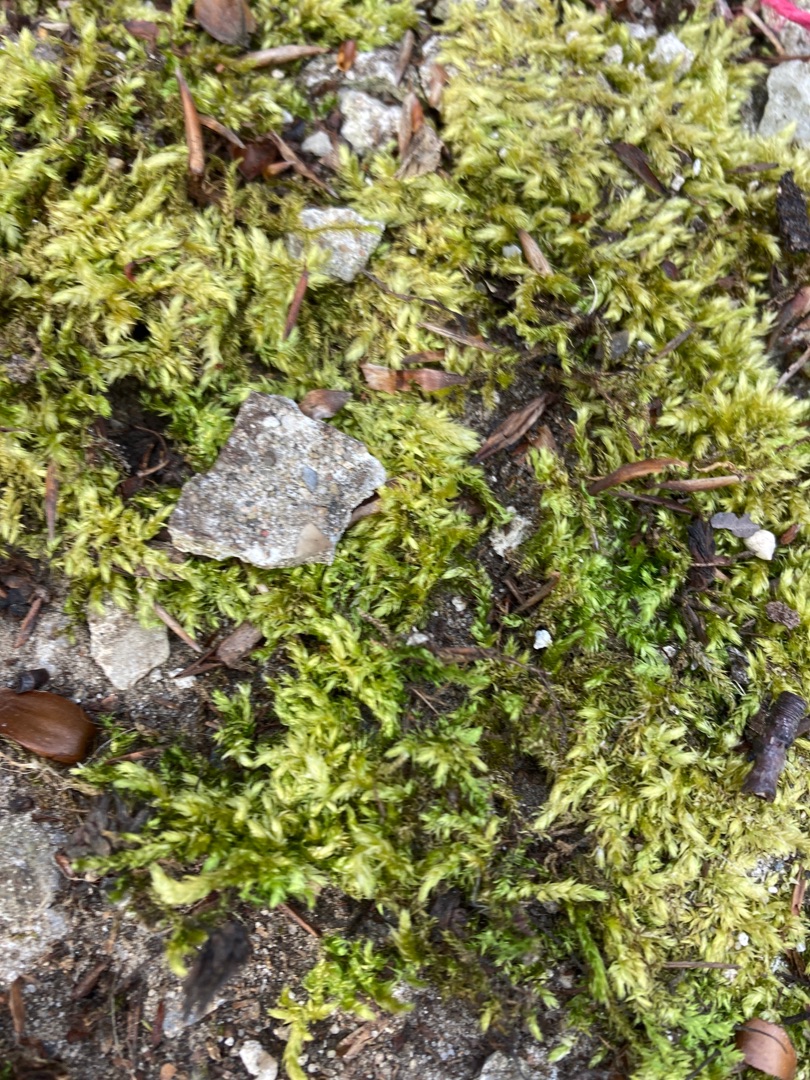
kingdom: Plantae
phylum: Bryophyta
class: Bryopsida
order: Hypnales
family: Brachytheciaceae
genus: Brachythecium
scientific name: Brachythecium rutabulum
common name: Almindelig kortkapsel
